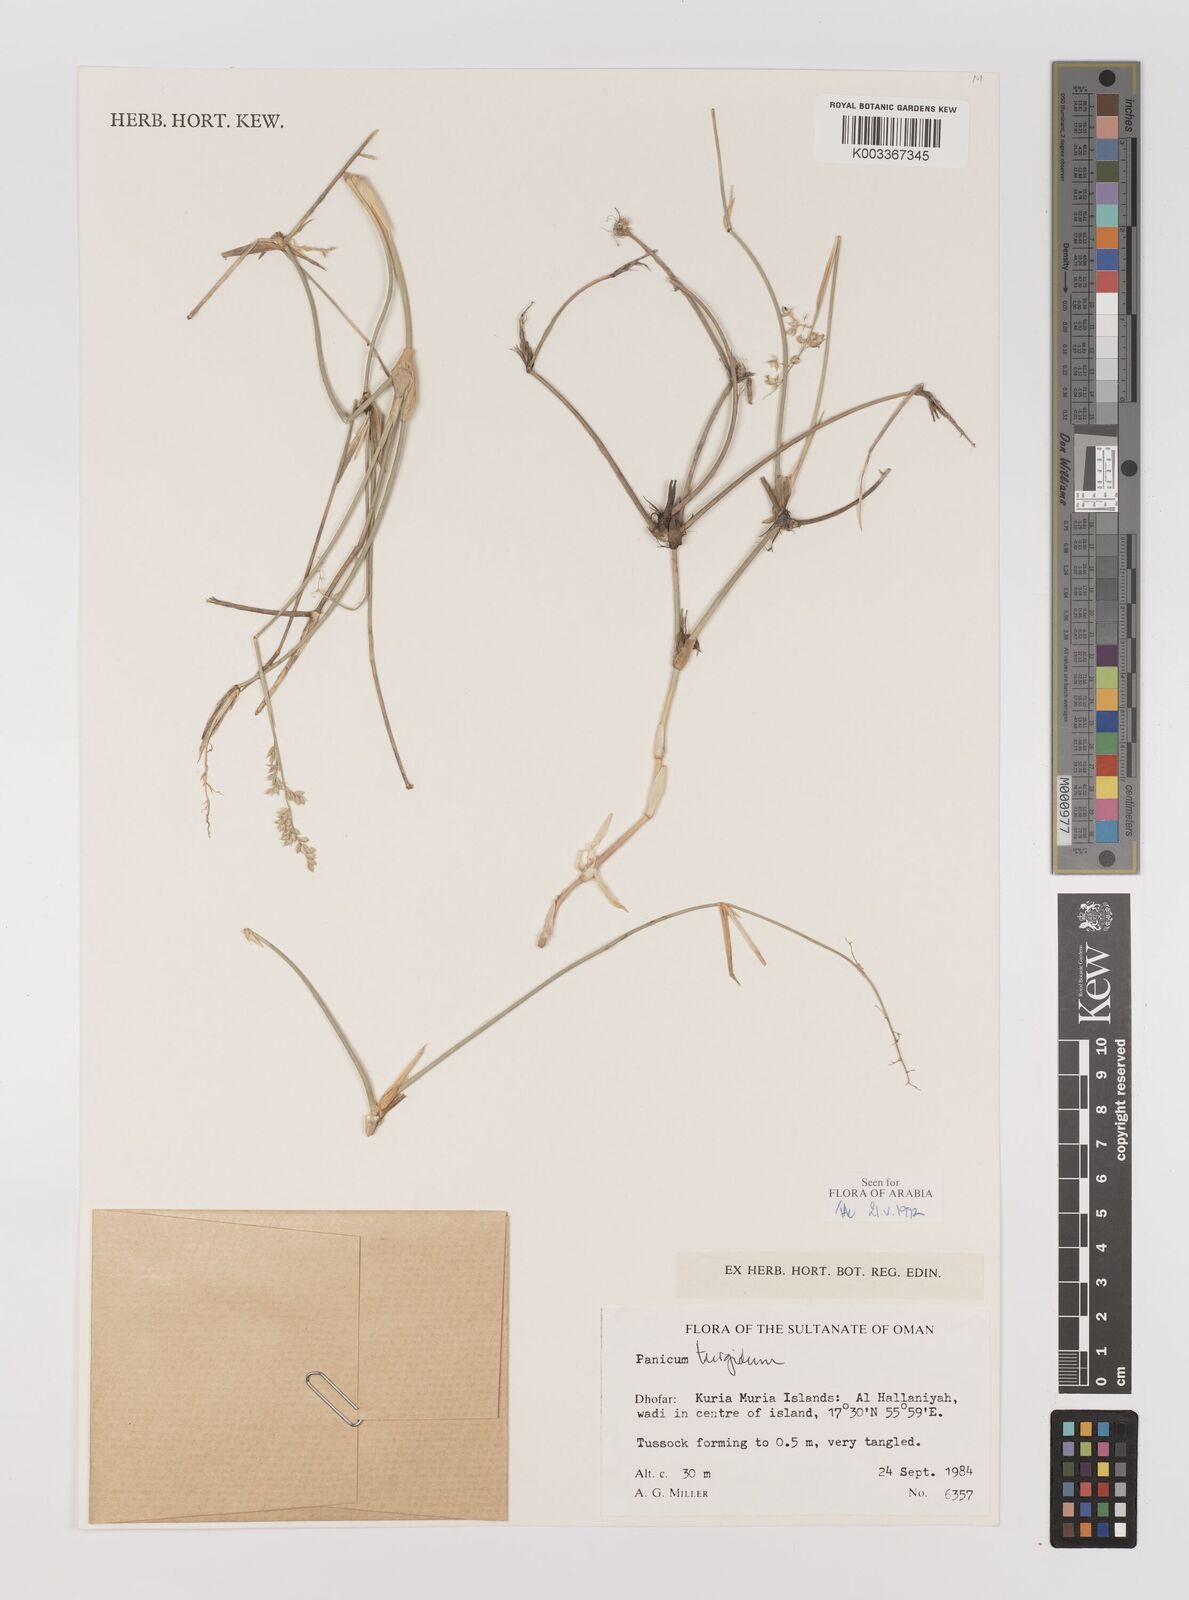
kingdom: Plantae
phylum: Tracheophyta
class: Liliopsida
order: Poales
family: Poaceae
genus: Panicum
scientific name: Panicum turgidum
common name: Desert grass
